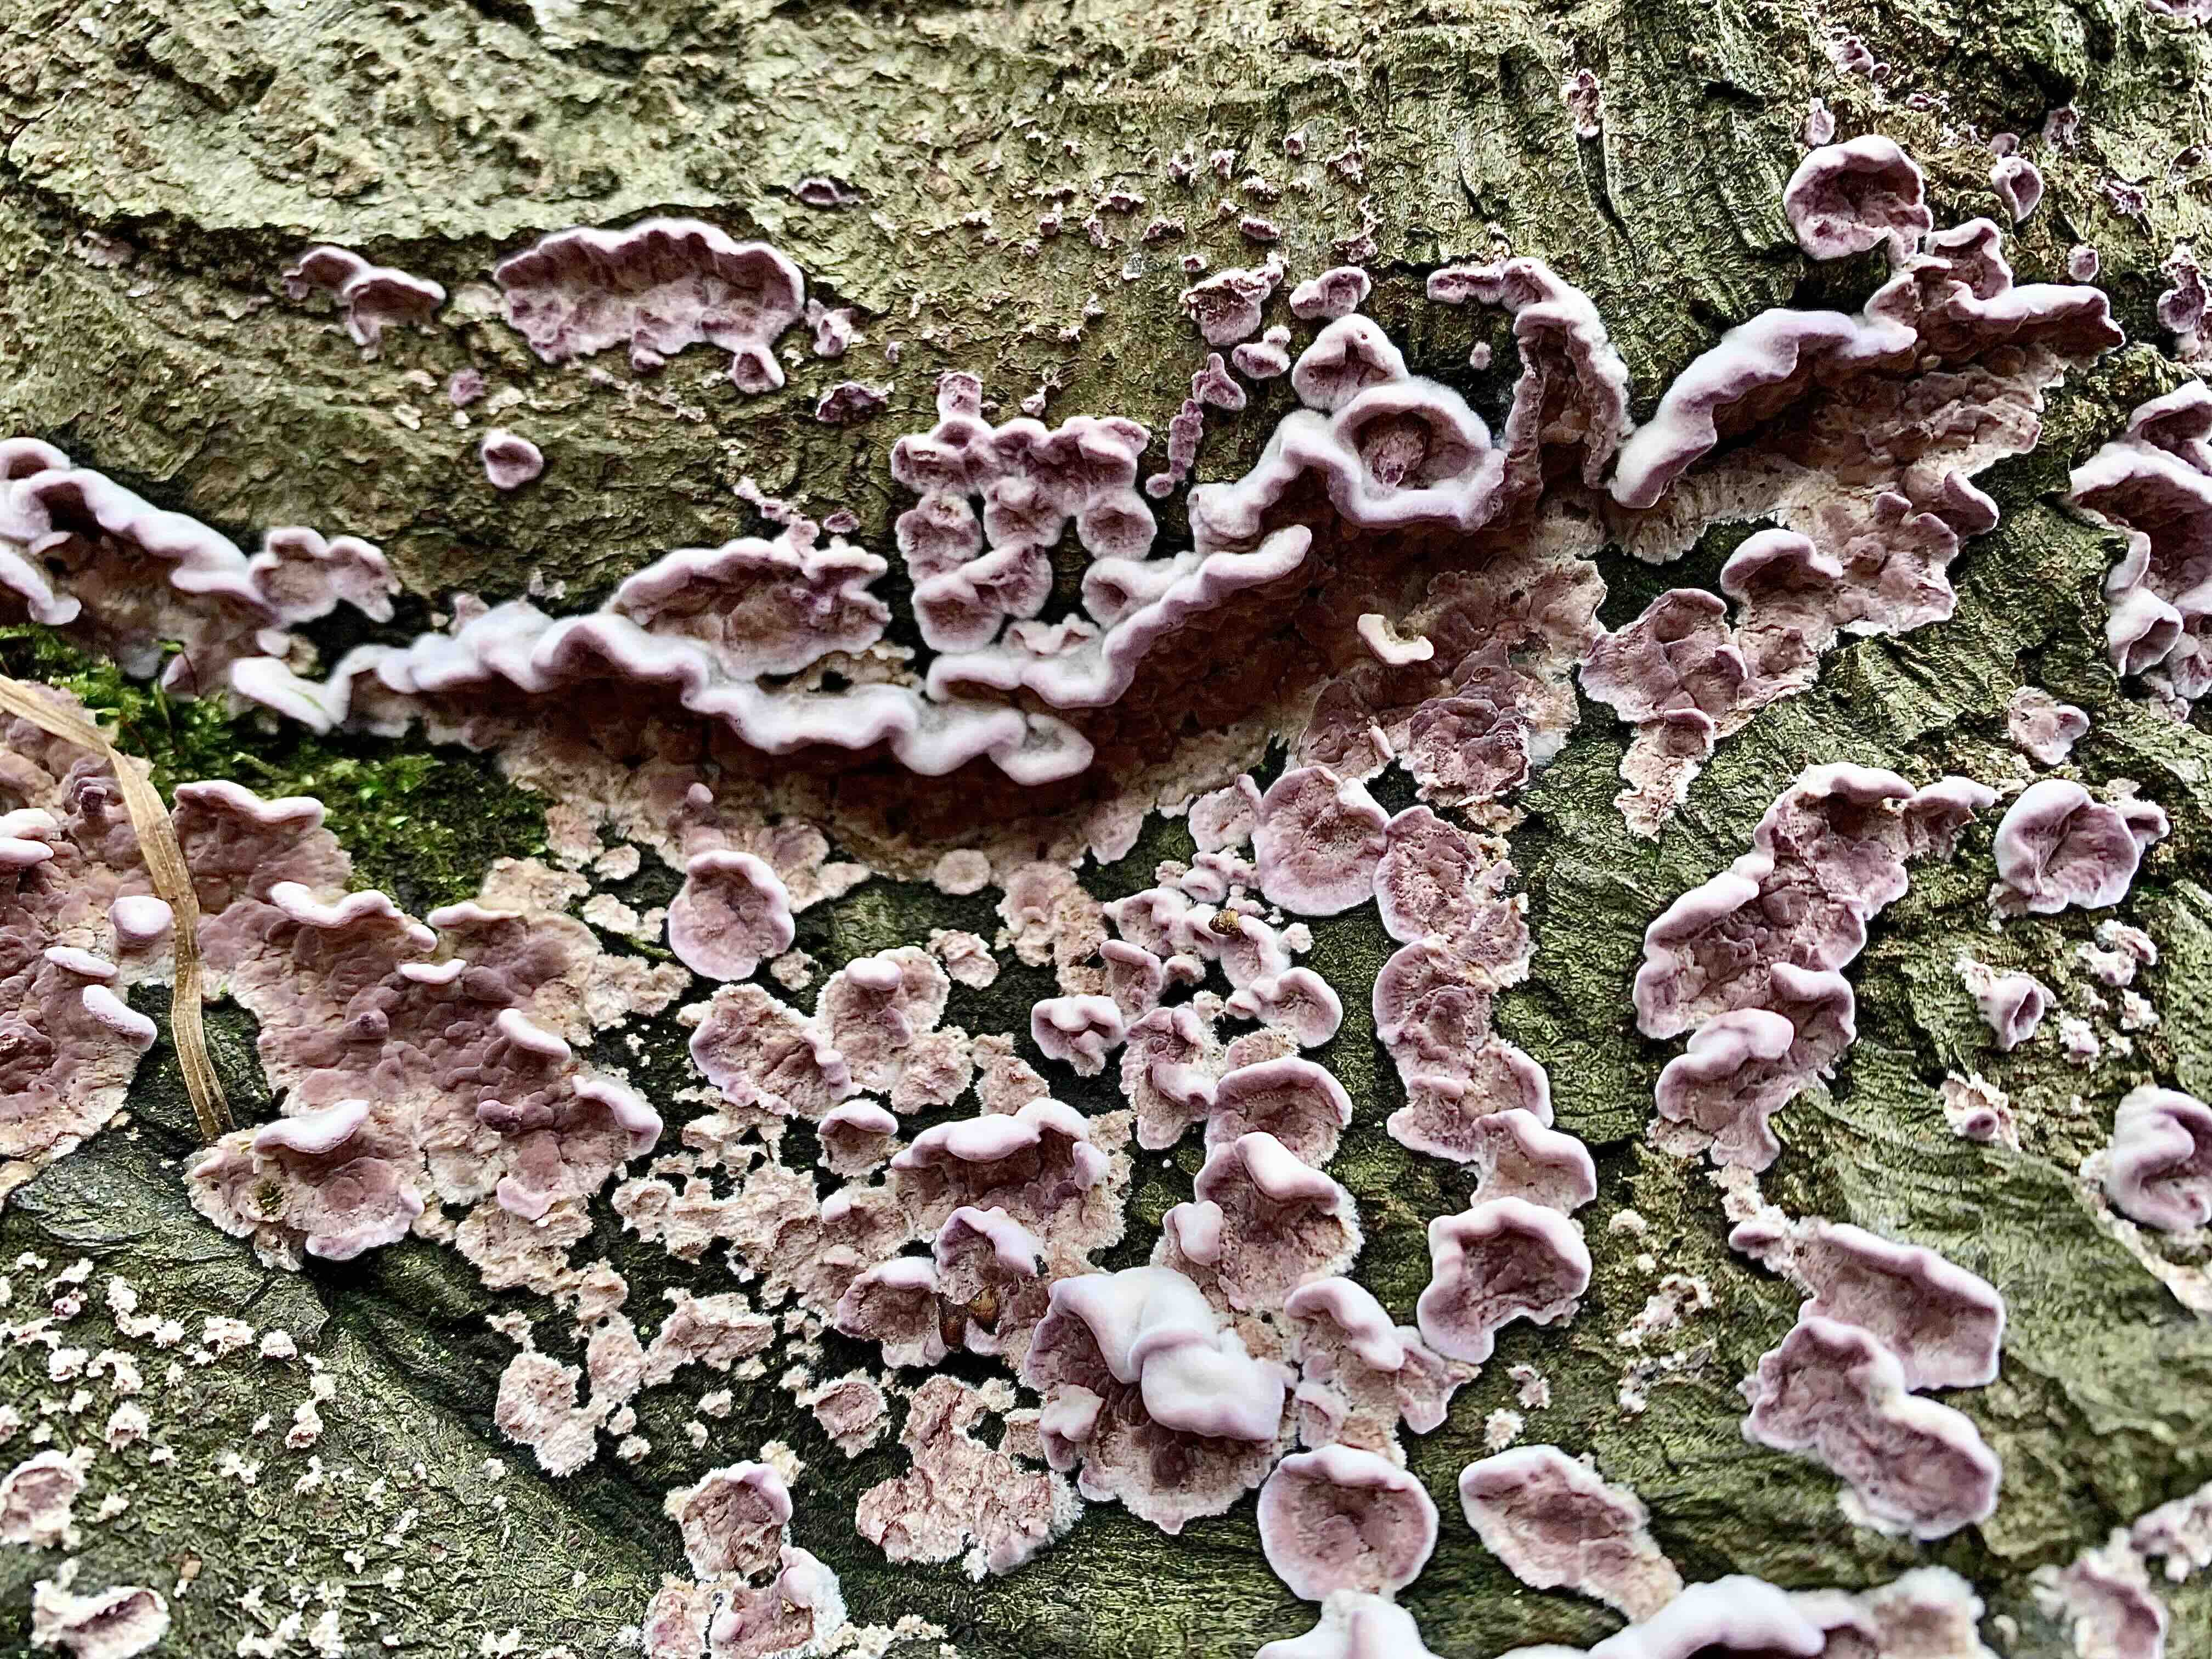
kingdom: Fungi
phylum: Basidiomycota
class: Agaricomycetes
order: Agaricales
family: Cyphellaceae
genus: Chondrostereum
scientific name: Chondrostereum purpureum
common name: purpurlædersvamp
